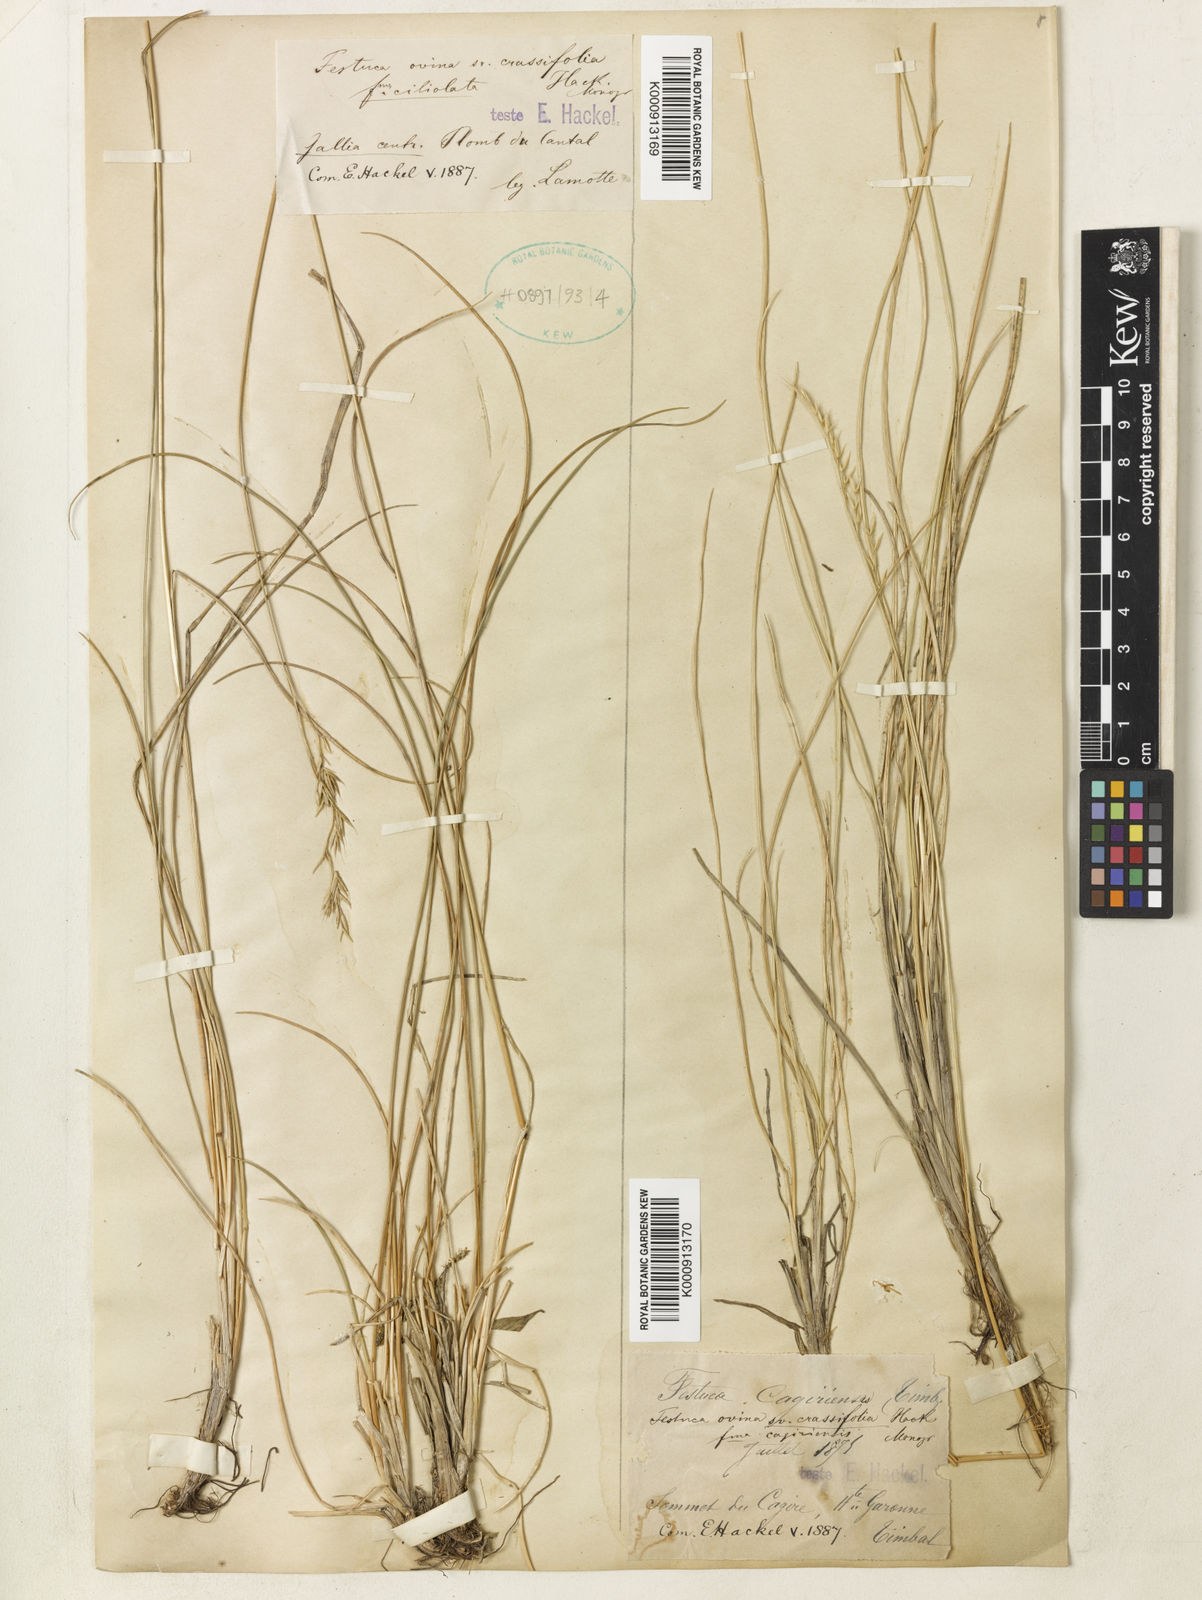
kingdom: Plantae
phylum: Tracheophyta
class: Liliopsida
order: Poales
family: Poaceae
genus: Festuca
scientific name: Festuca laevigata
